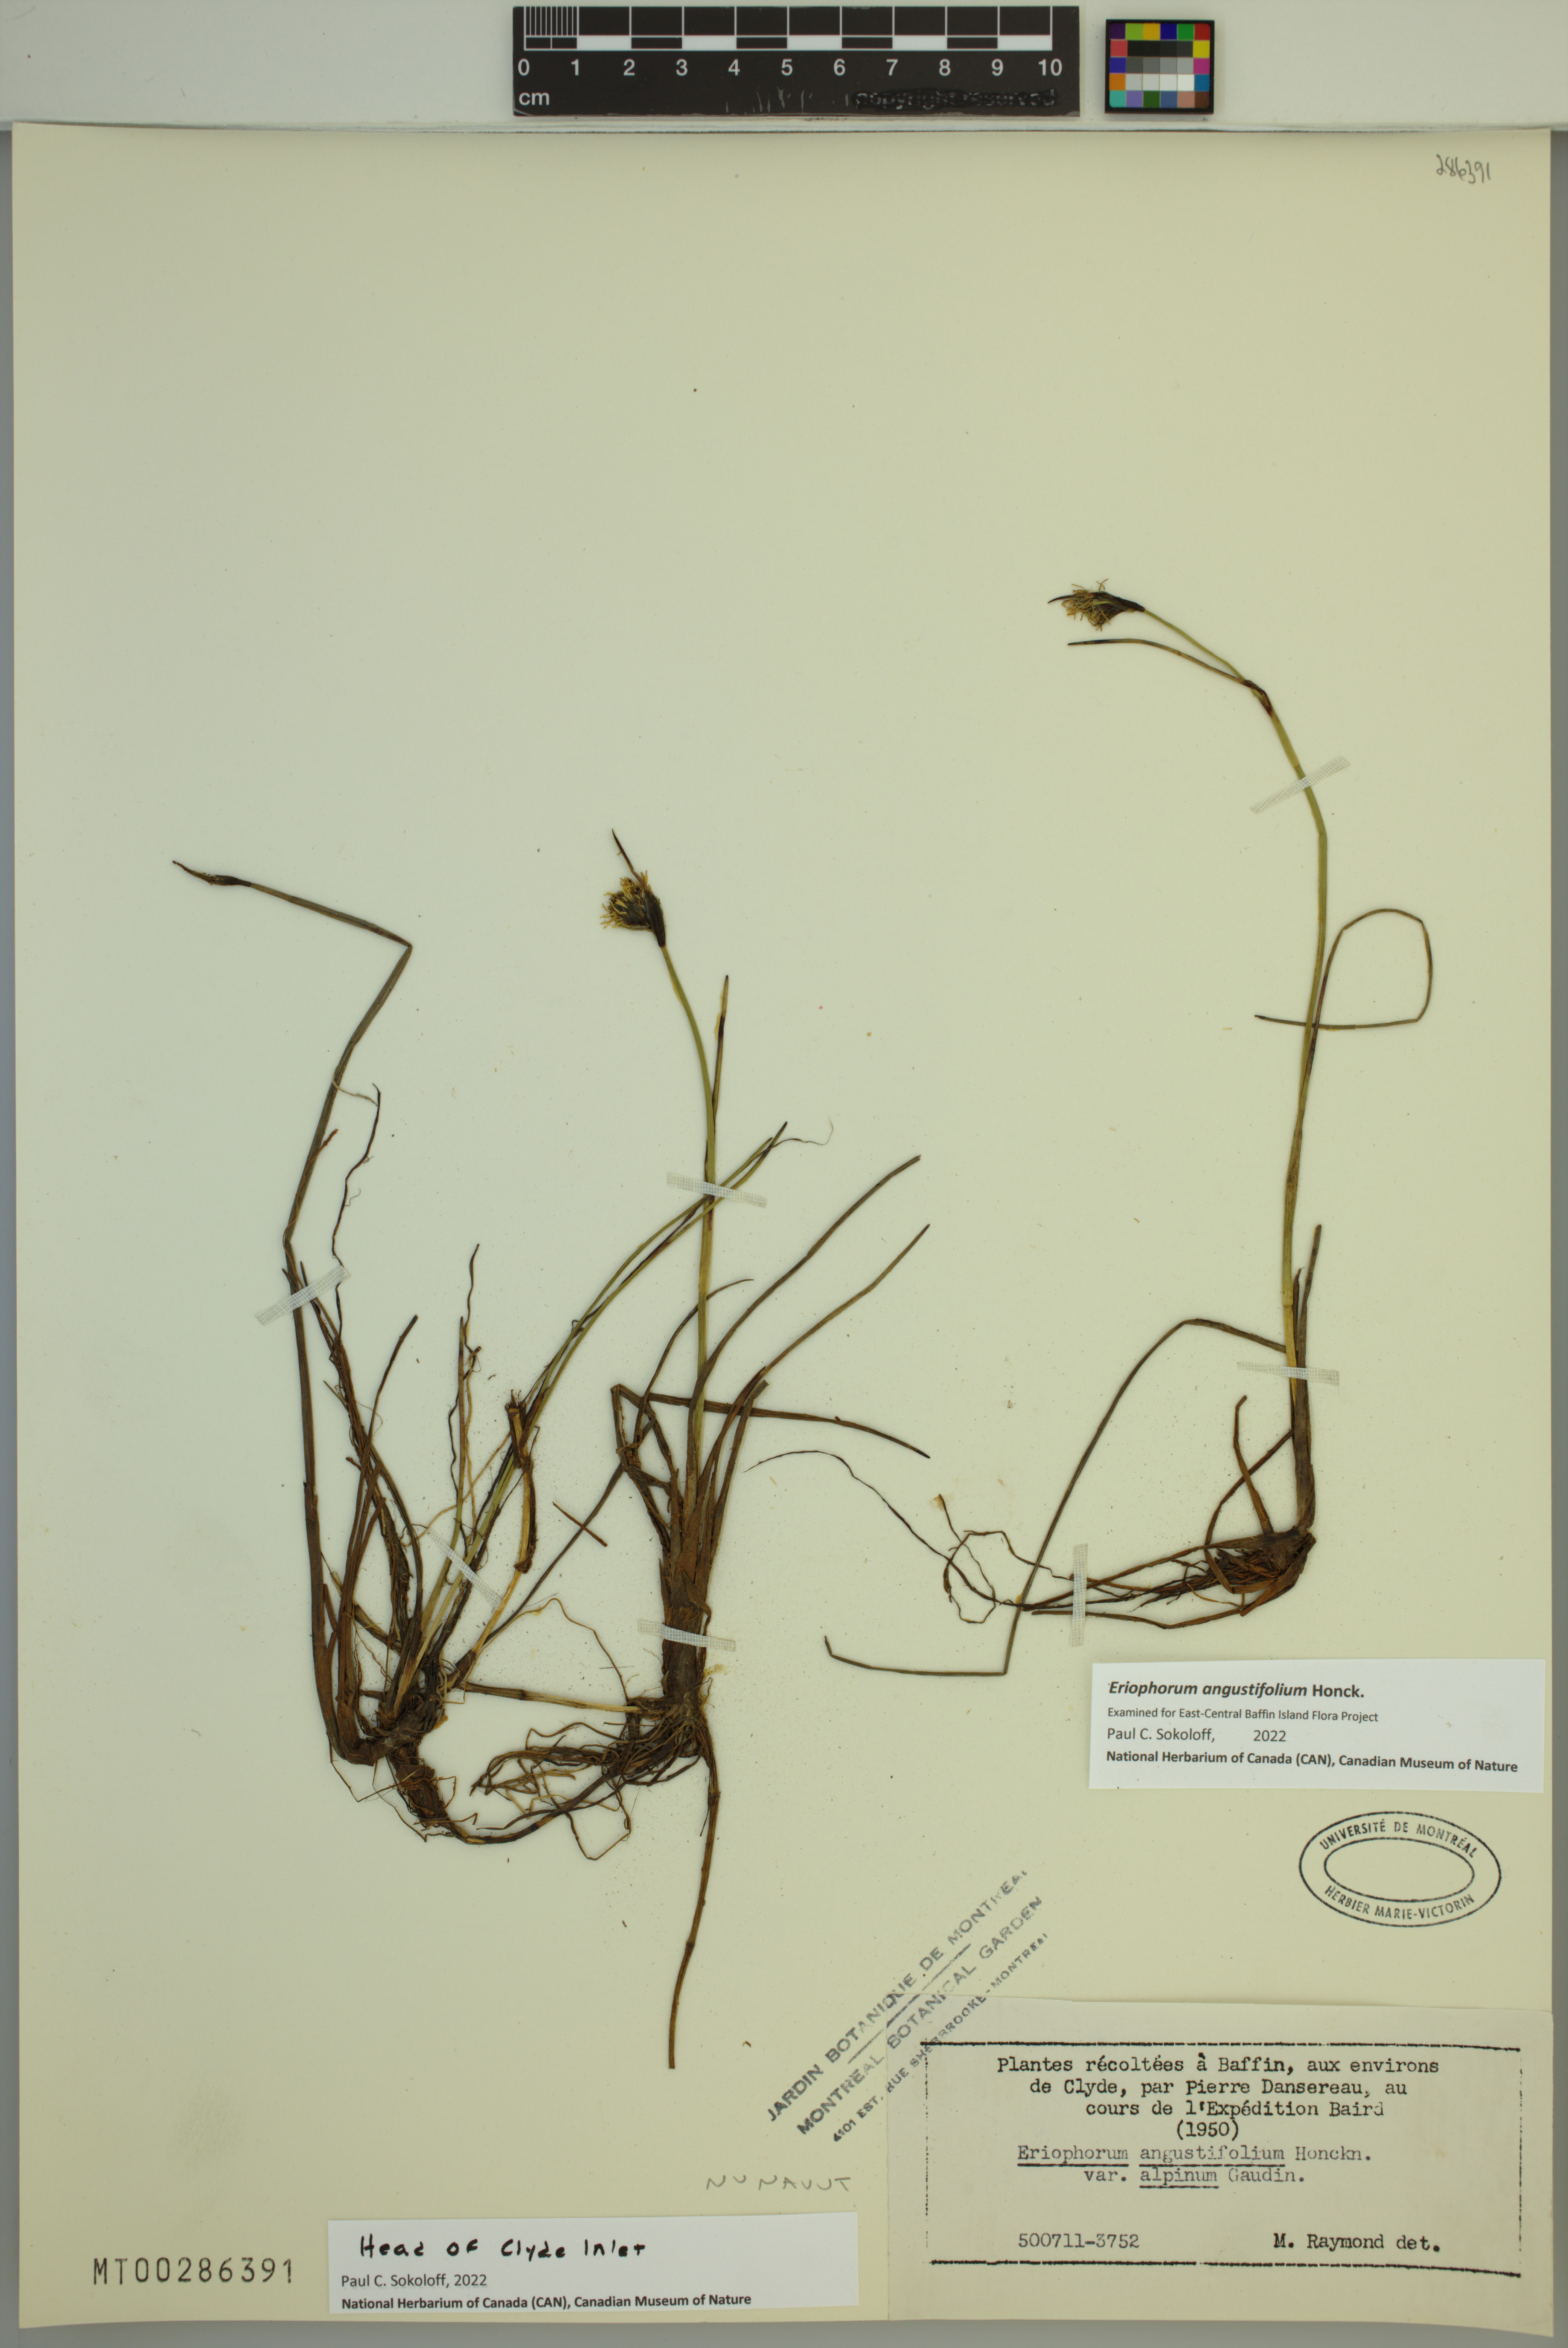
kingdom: Plantae
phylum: Tracheophyta
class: Liliopsida
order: Poales
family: Cyperaceae
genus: Eriophorum
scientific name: Eriophorum angustifolium
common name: Common cottongrass
